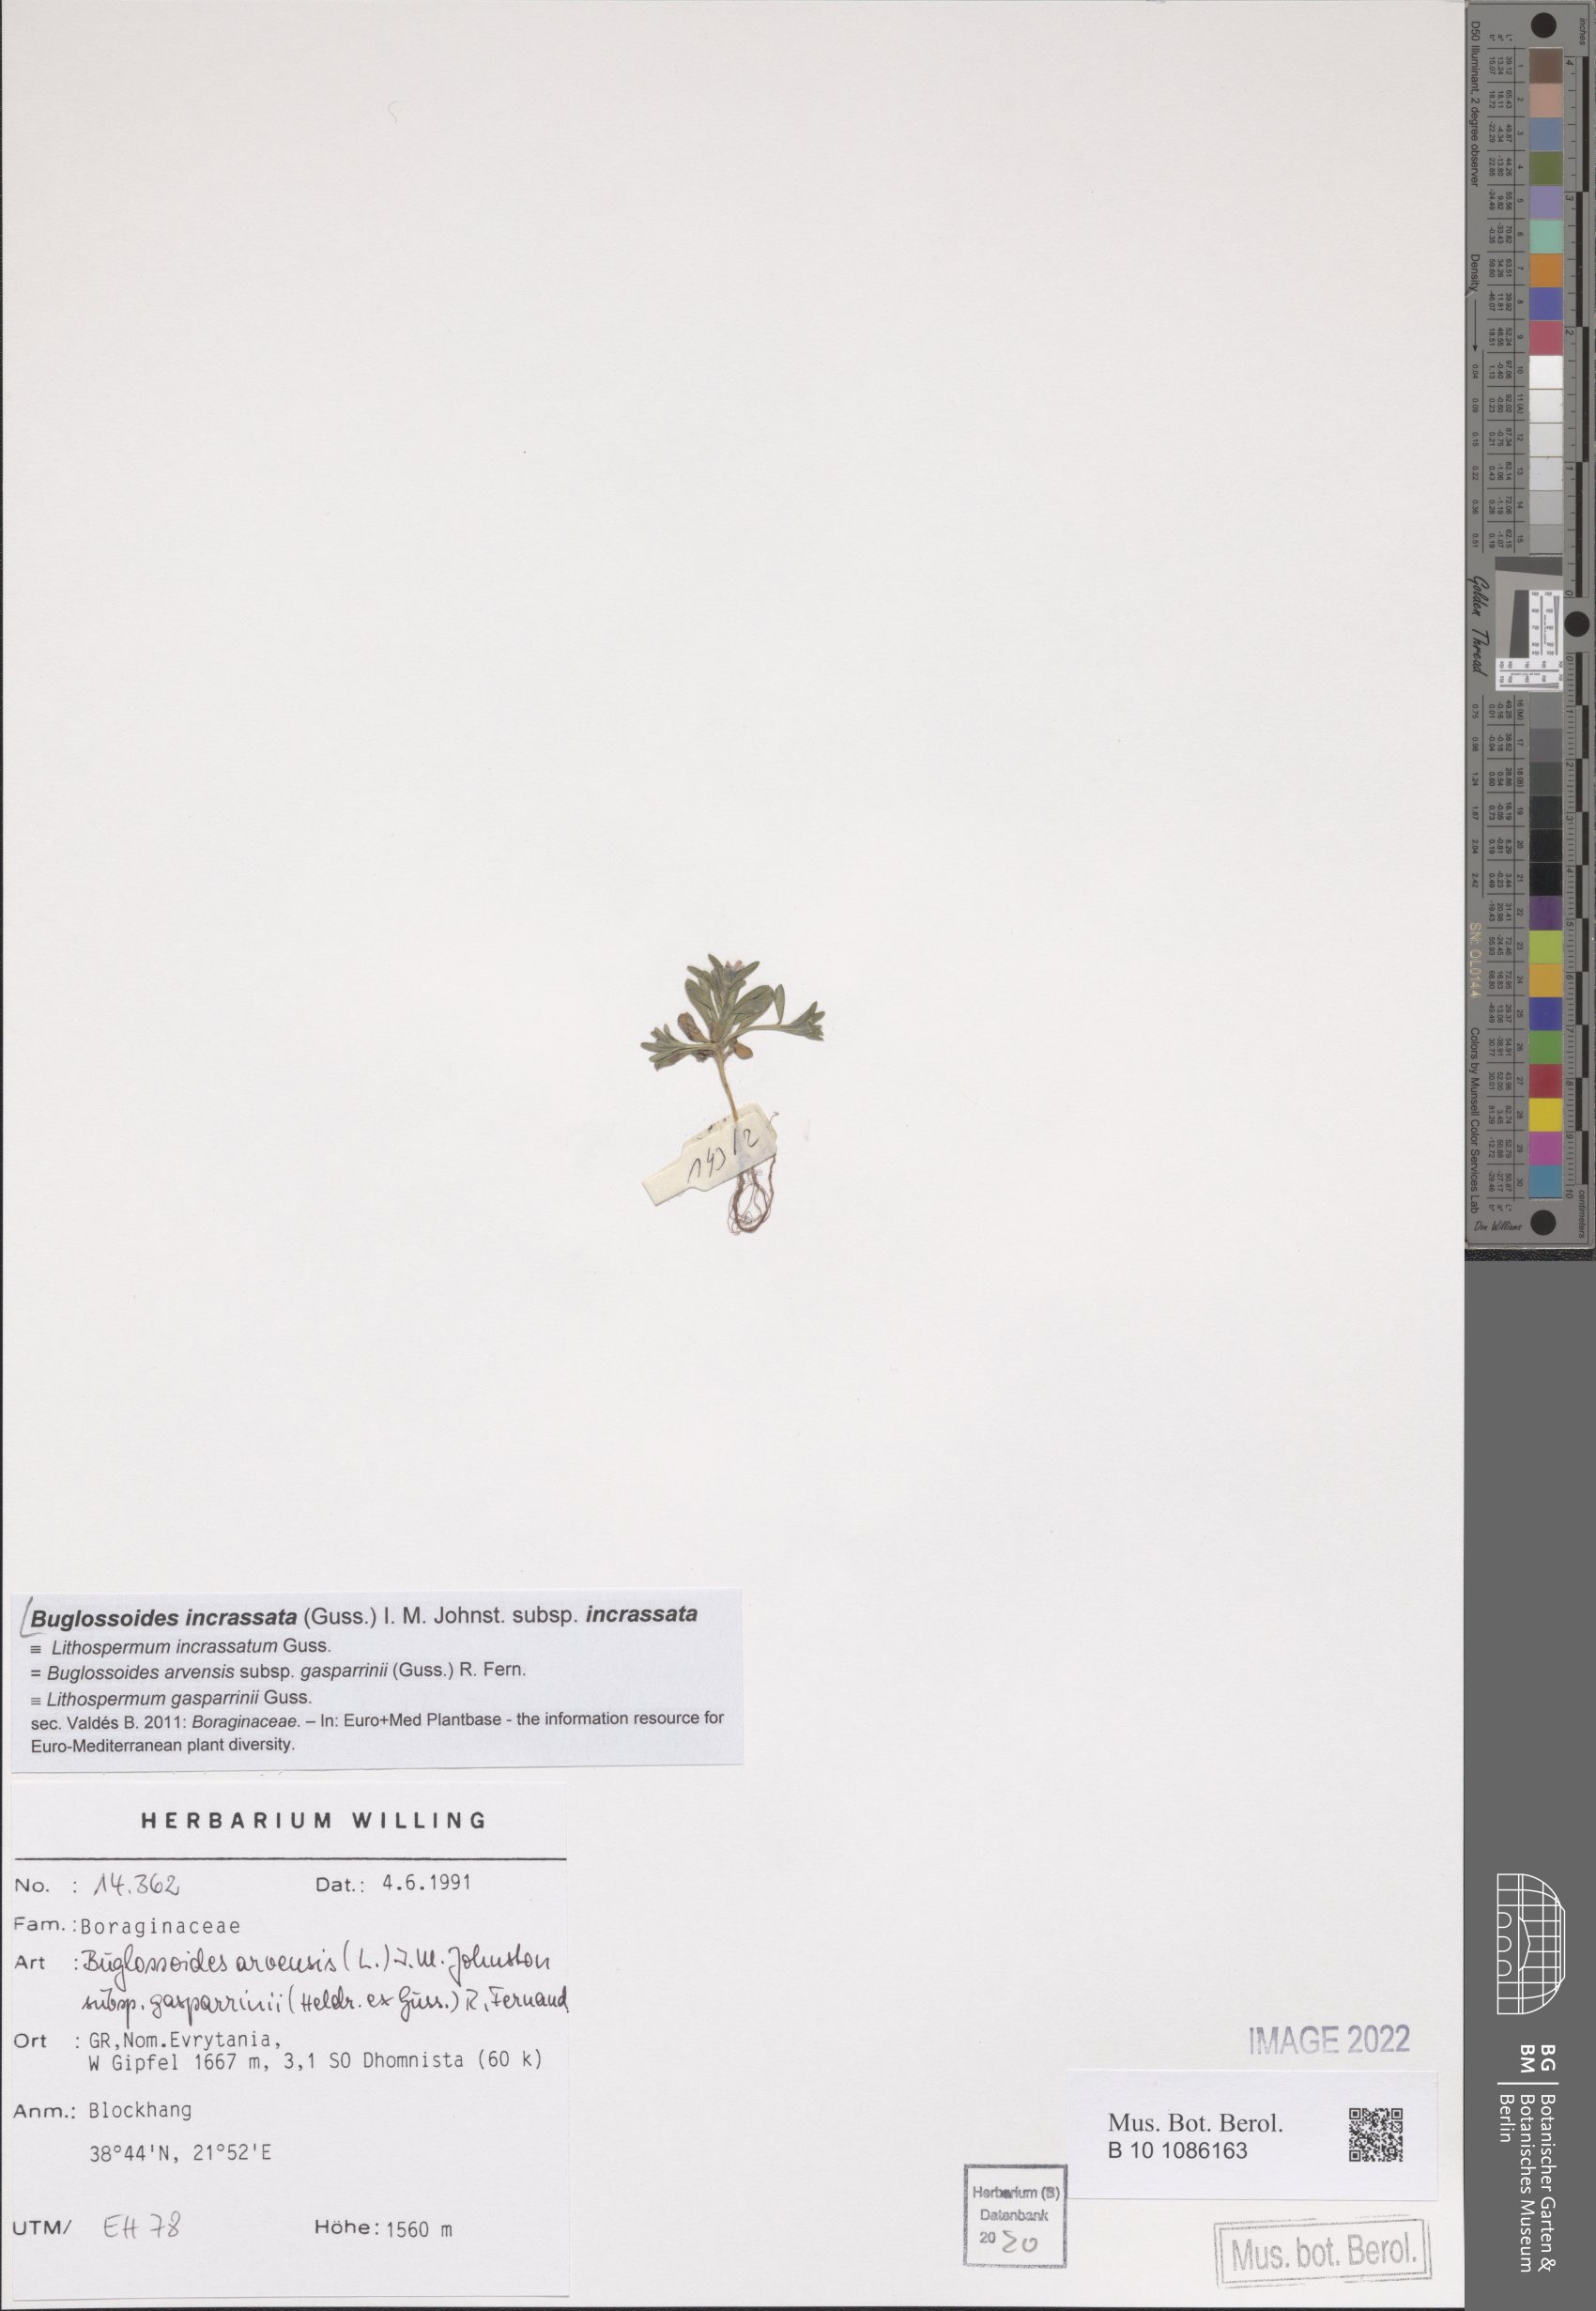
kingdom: Plantae
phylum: Tracheophyta
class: Magnoliopsida
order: Boraginales
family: Boraginaceae
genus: Buglossoides
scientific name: Buglossoides incrassata
